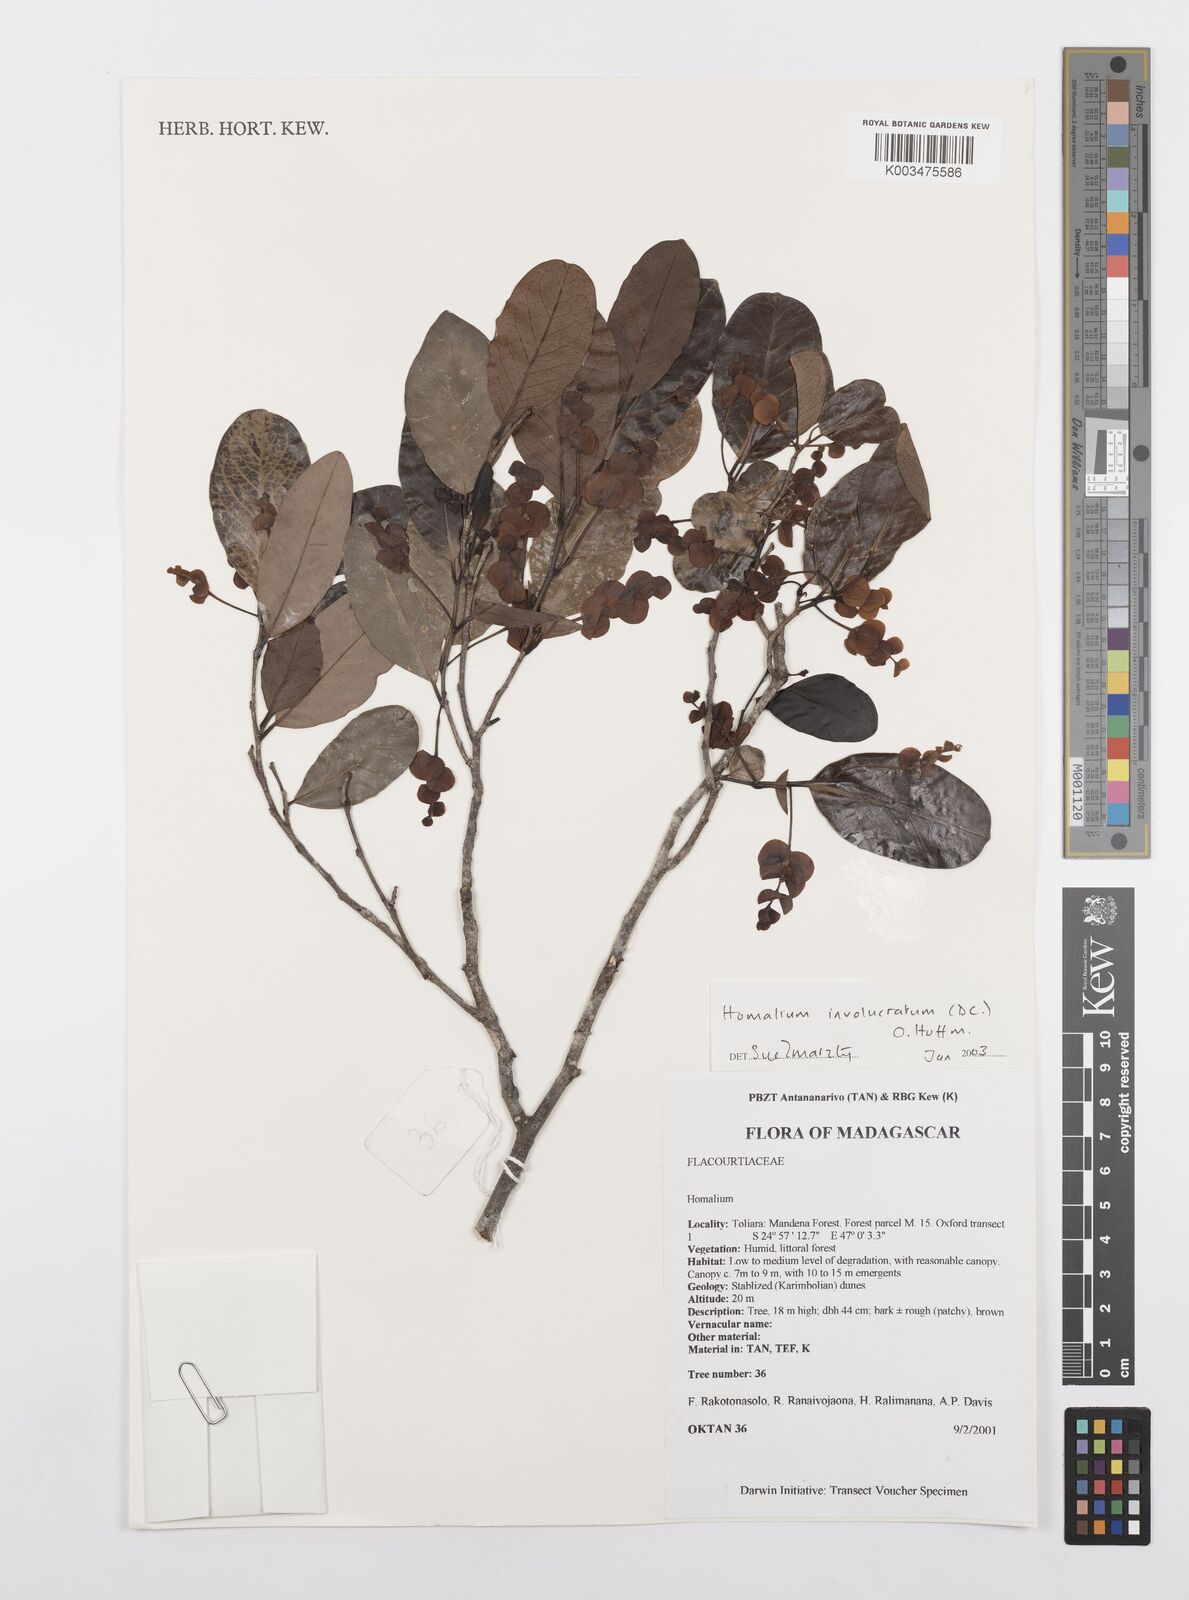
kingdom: Plantae
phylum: Tracheophyta
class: Magnoliopsida
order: Malpighiales
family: Salicaceae
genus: Homalium
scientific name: Homalium involucratum
